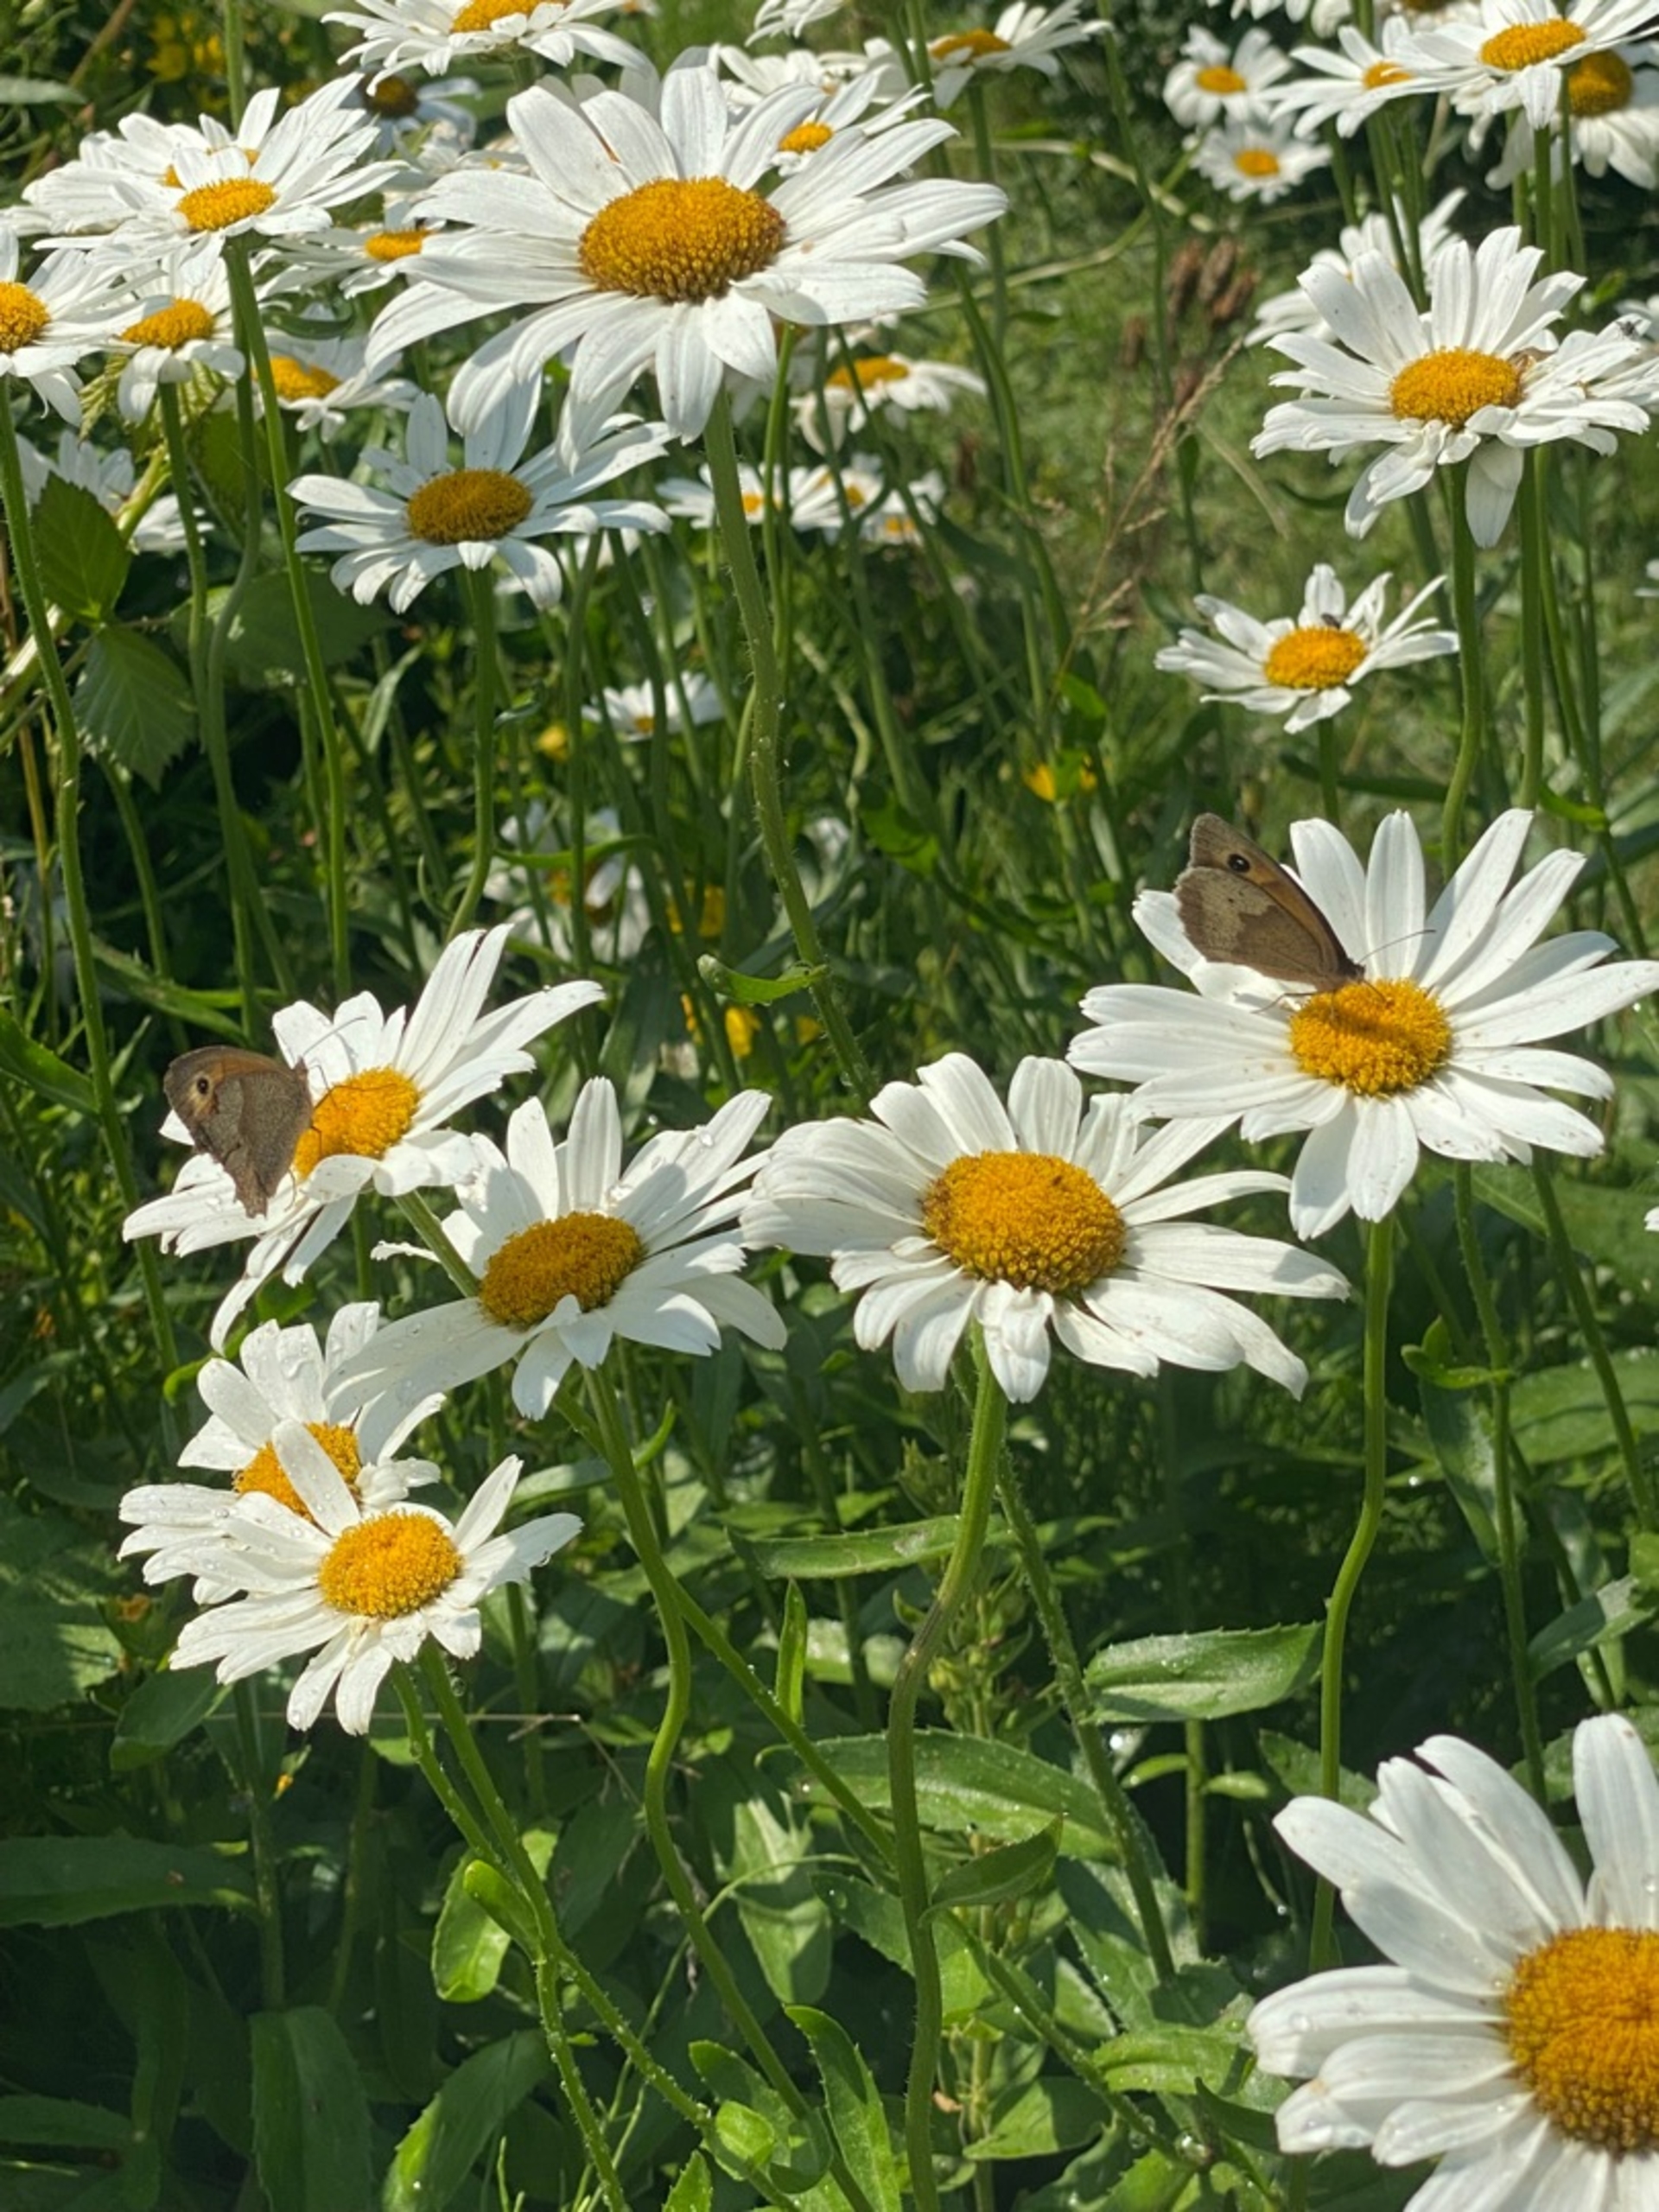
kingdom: Animalia
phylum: Arthropoda
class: Insecta
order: Lepidoptera
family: Nymphalidae
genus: Maniola
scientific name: Maniola jurtina
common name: Græsrandøje
